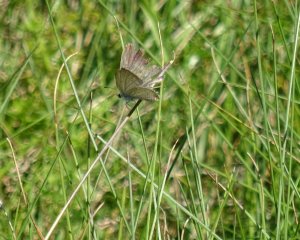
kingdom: Animalia
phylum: Arthropoda
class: Insecta
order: Lepidoptera
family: Lycaenidae
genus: Elkalyce
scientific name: Elkalyce comyntas
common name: Eastern Tailed-Blue
